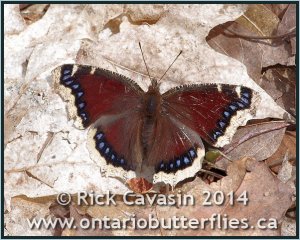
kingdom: Animalia
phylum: Arthropoda
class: Insecta
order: Lepidoptera
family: Nymphalidae
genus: Nymphalis
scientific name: Nymphalis antiopa
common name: Mourning Cloak
